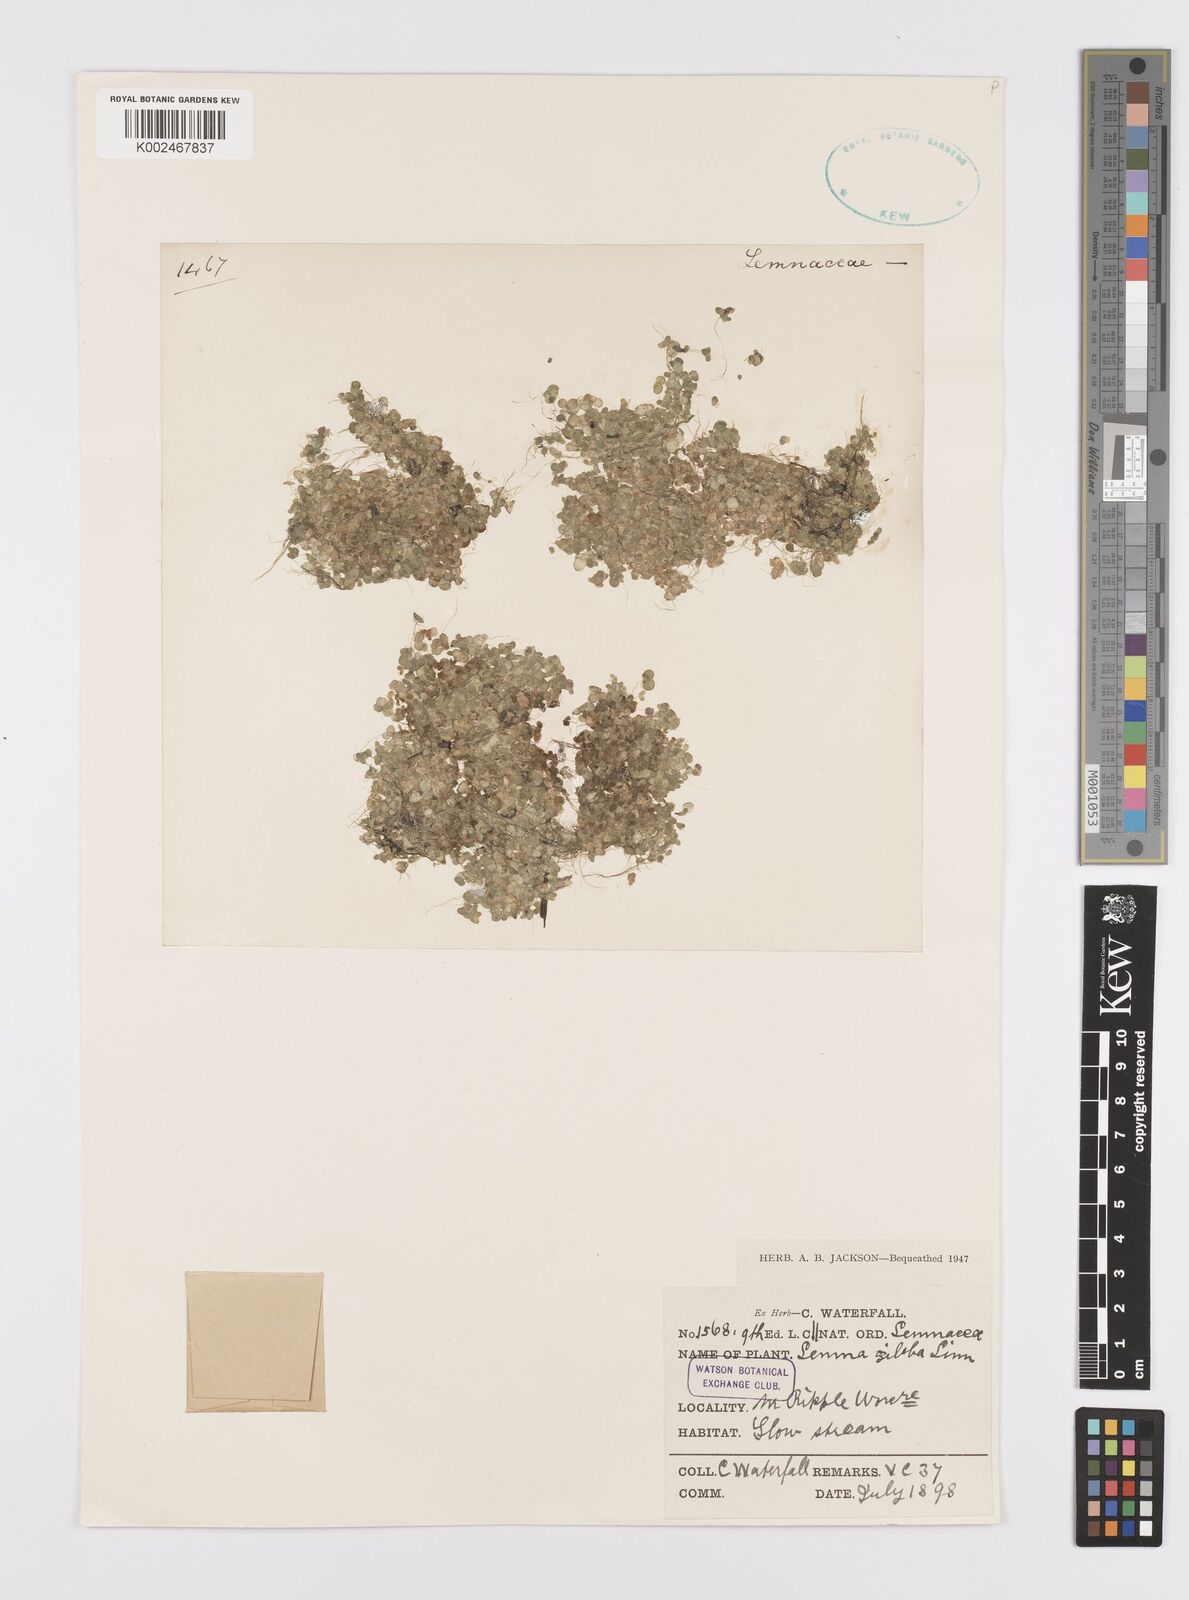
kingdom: Plantae
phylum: Tracheophyta
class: Liliopsida
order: Alismatales
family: Araceae
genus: Lemna
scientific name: Lemna gibba
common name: Fat duckweed
